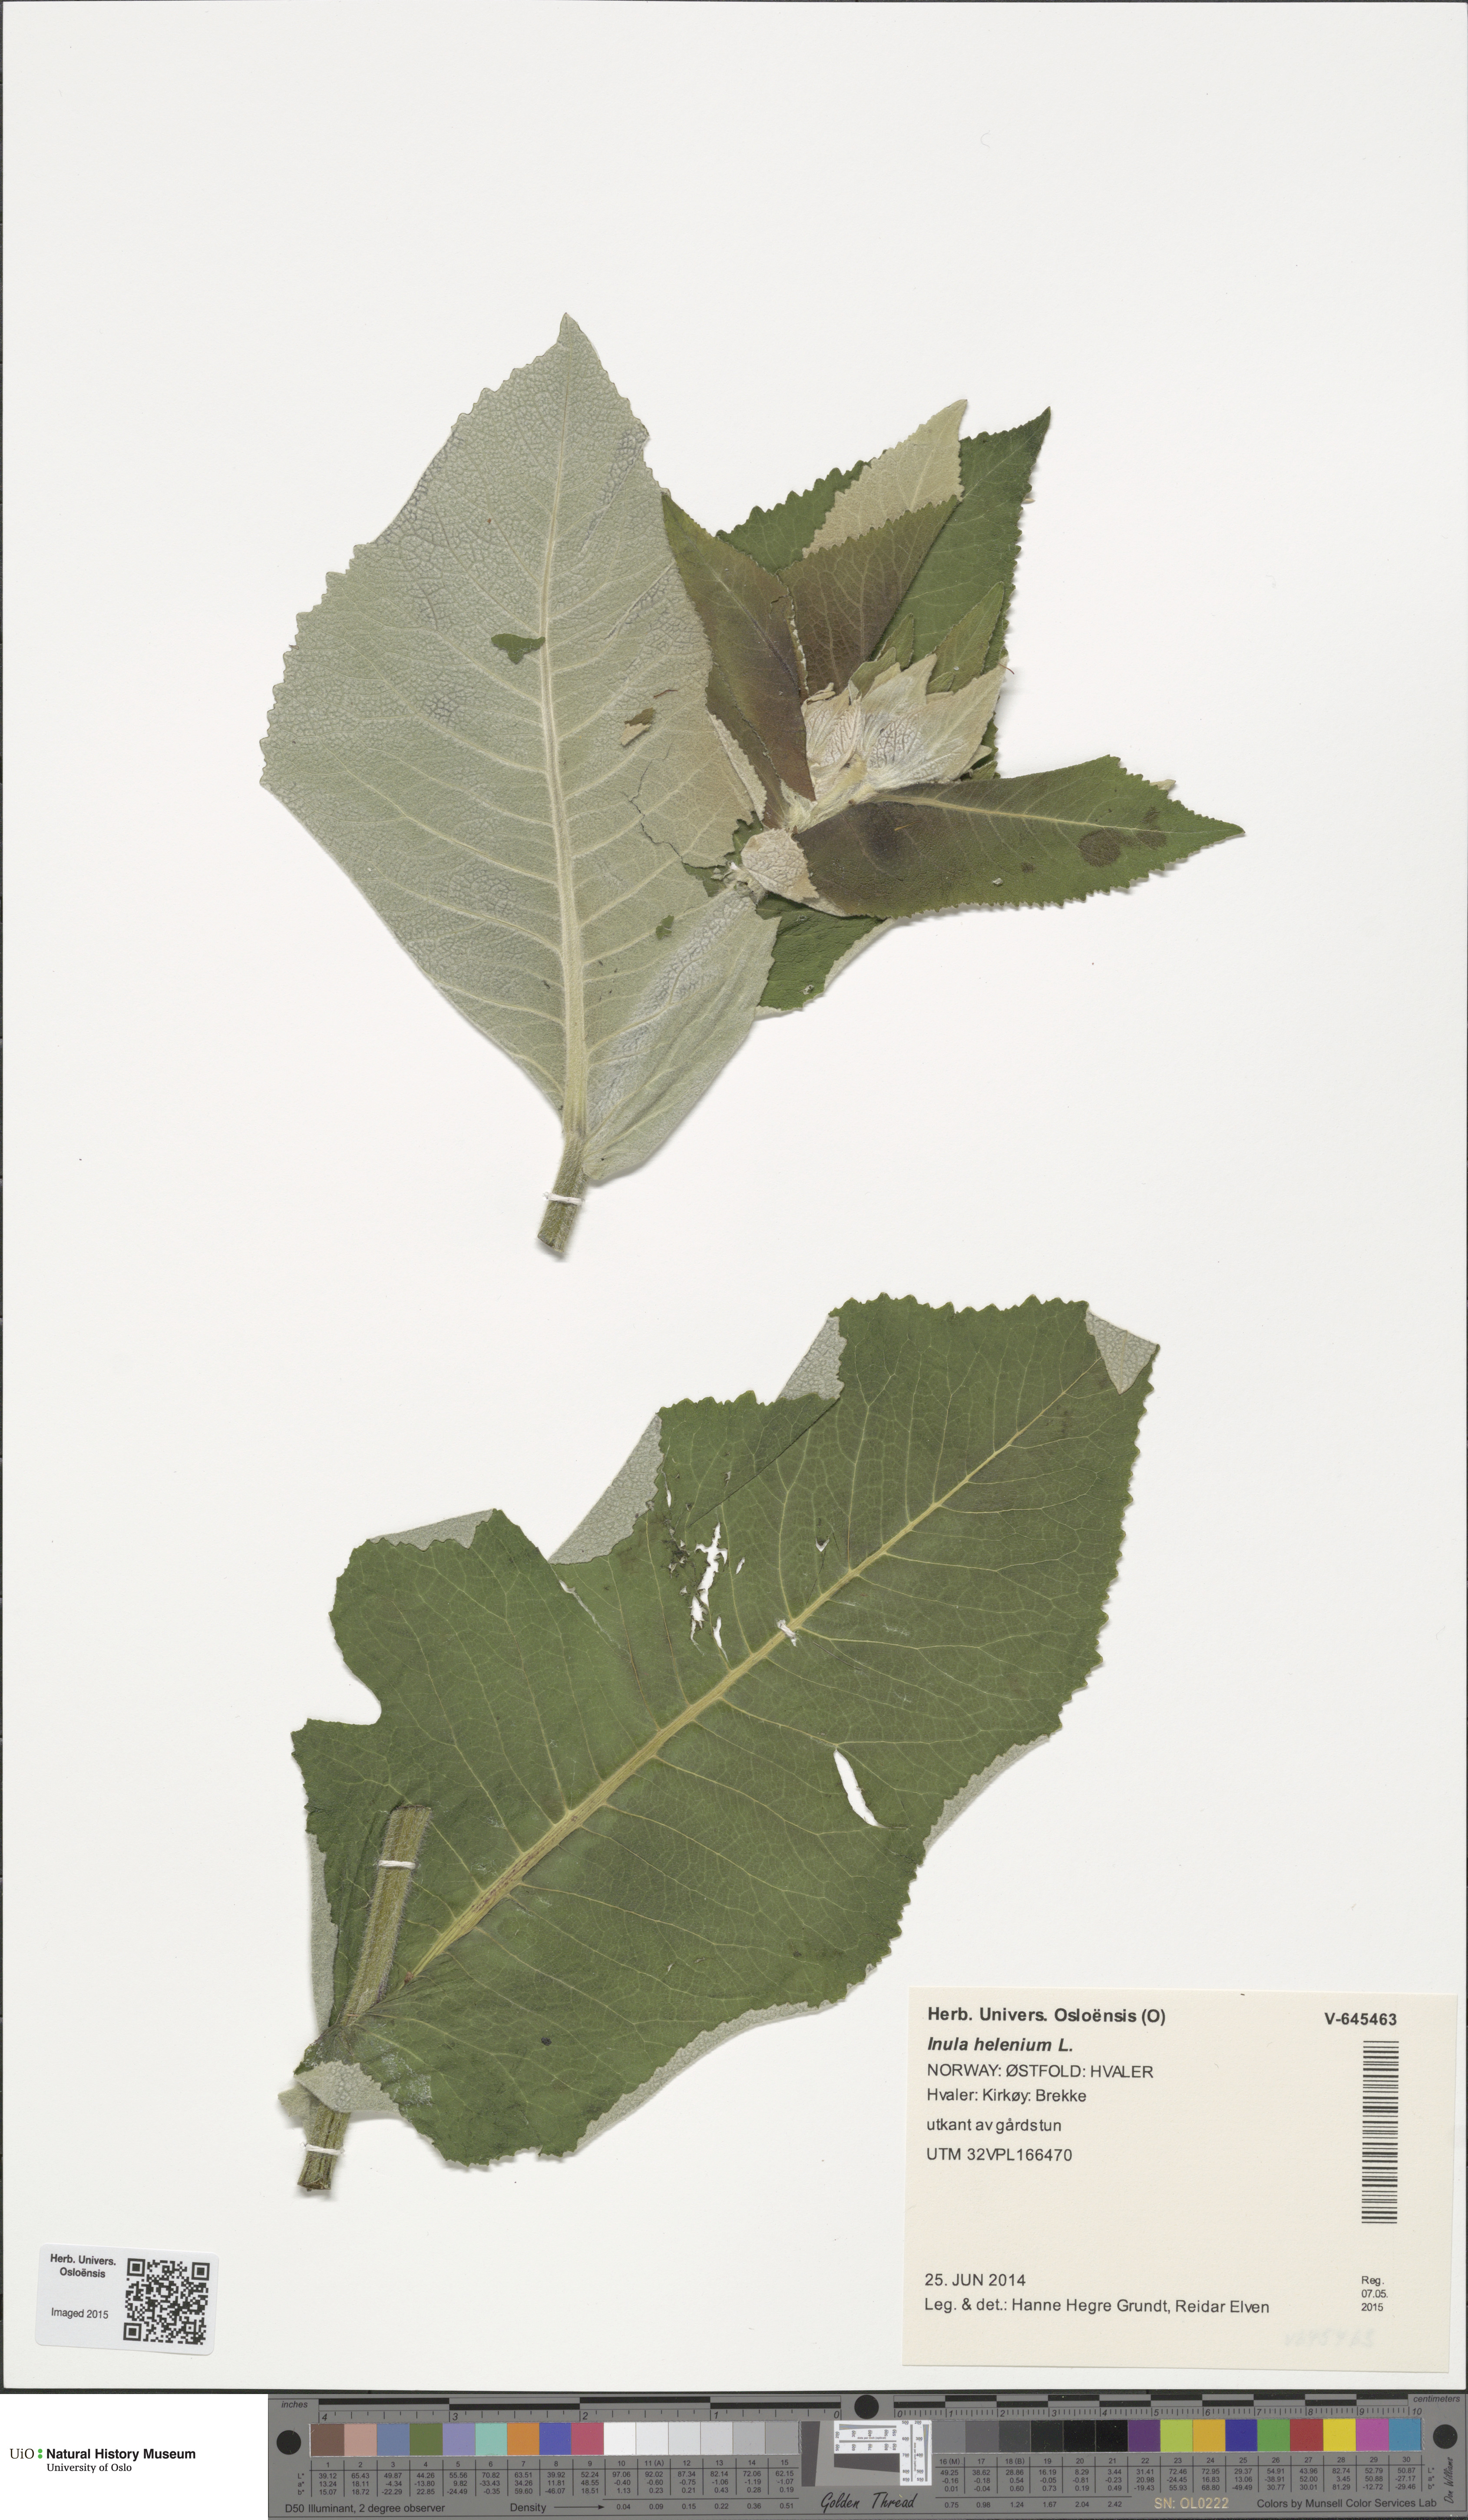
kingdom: Plantae
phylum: Tracheophyta
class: Magnoliopsida
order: Asterales
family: Asteraceae
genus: Inula
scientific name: Inula helenium
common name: Elecampane
